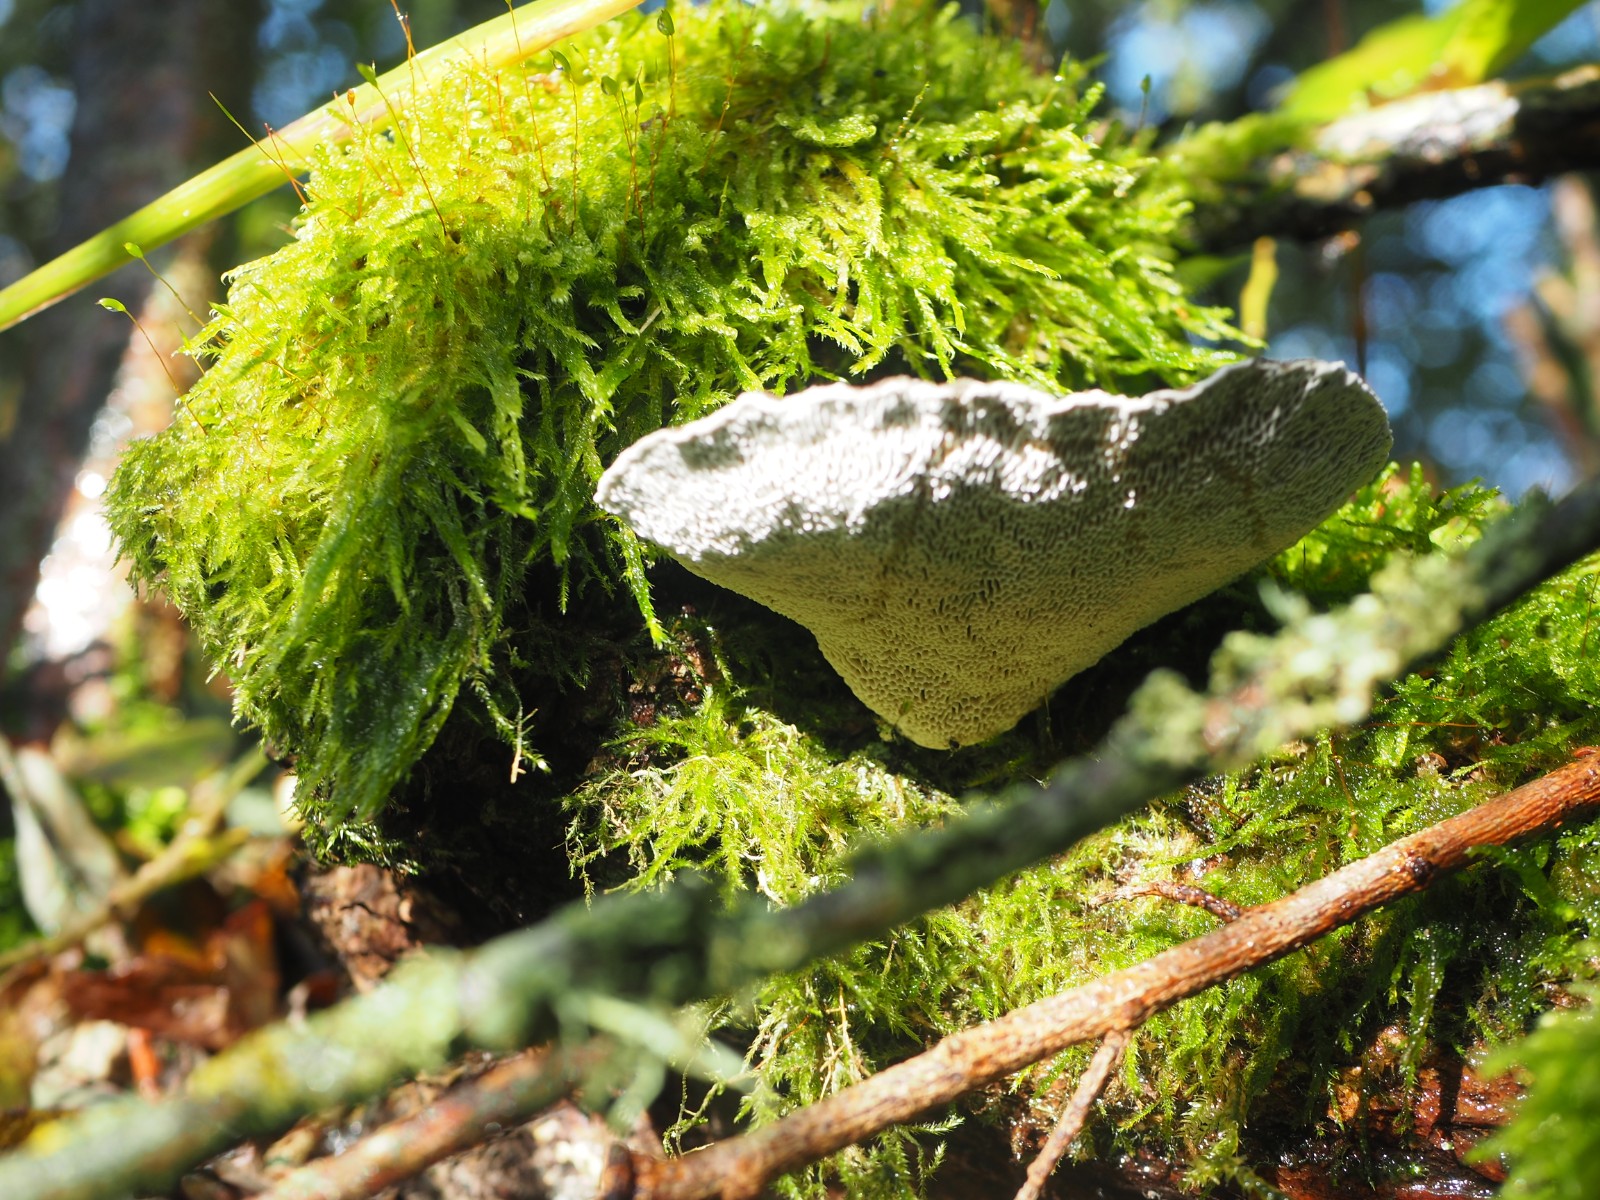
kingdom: Fungi
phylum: Basidiomycota
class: Agaricomycetes
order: Polyporales
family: Polyporaceae
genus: Daedaleopsis
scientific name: Daedaleopsis confragosa
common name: rødmende læderporesvamp
